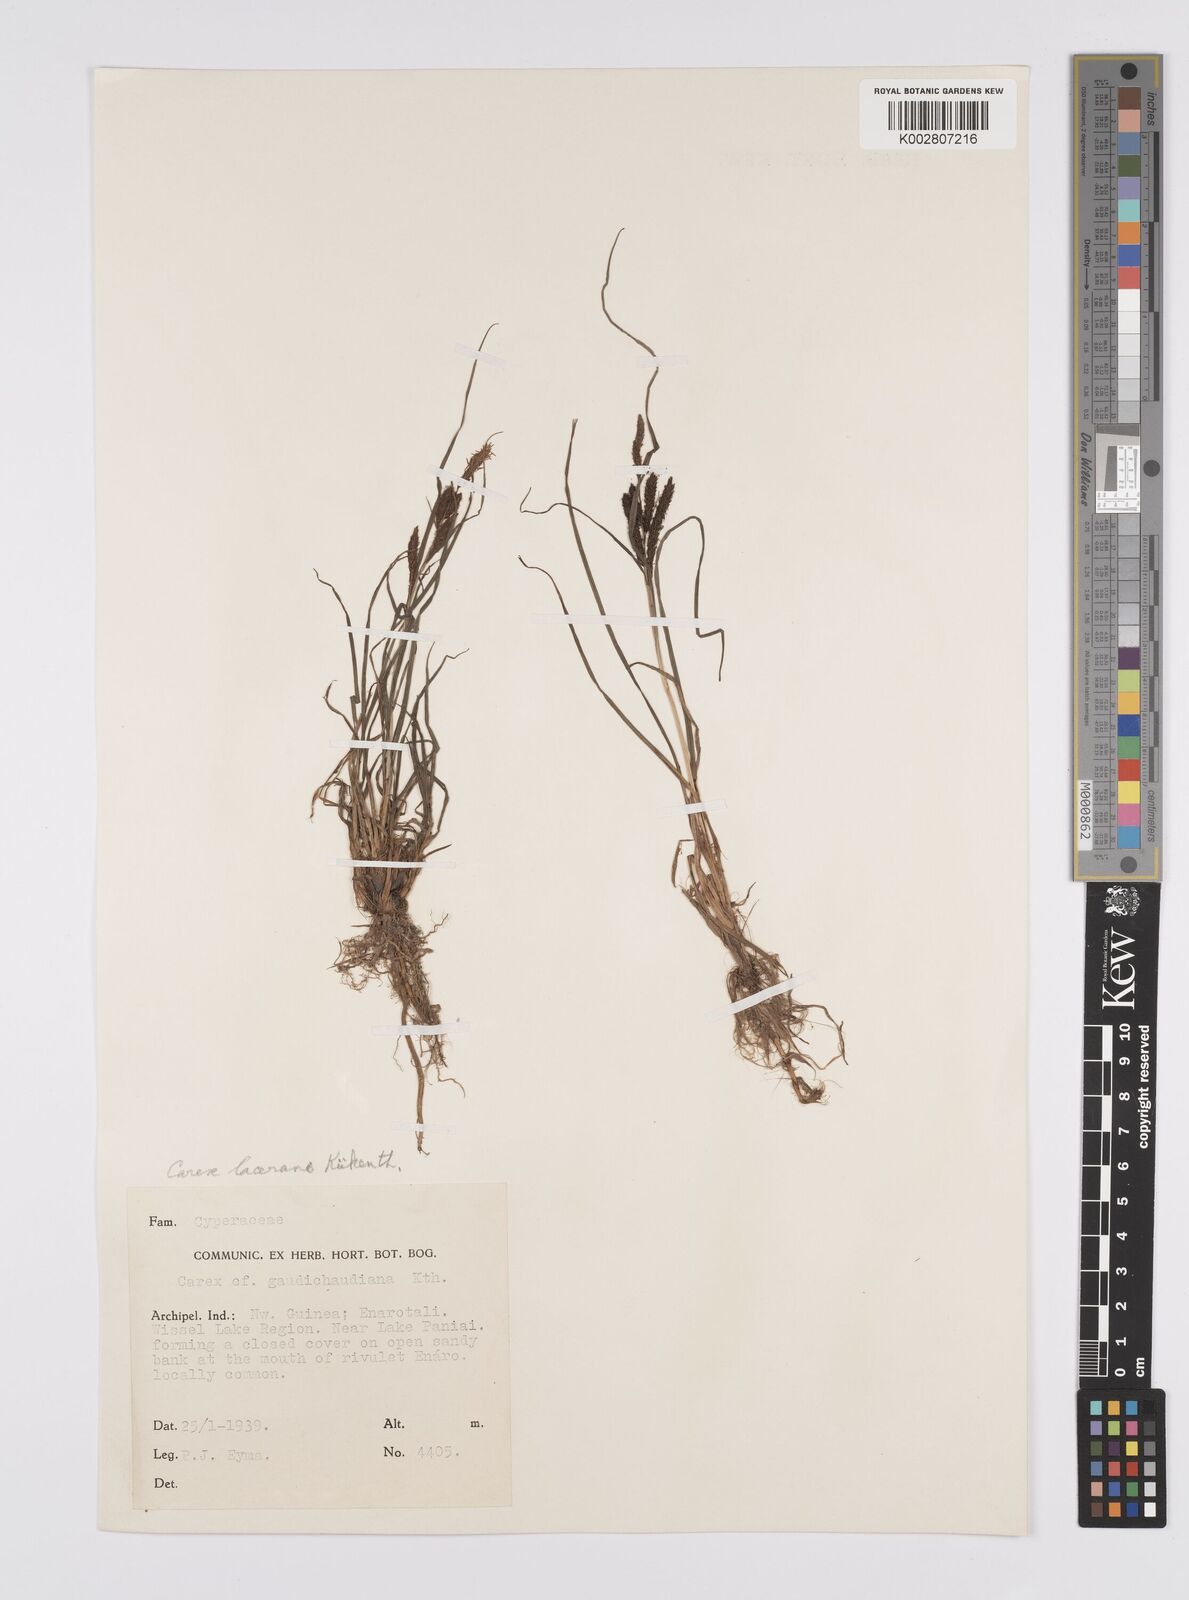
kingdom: Plantae
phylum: Tracheophyta
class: Liliopsida
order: Poales
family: Cyperaceae
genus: Carex
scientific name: Carex gaudichaudiana
